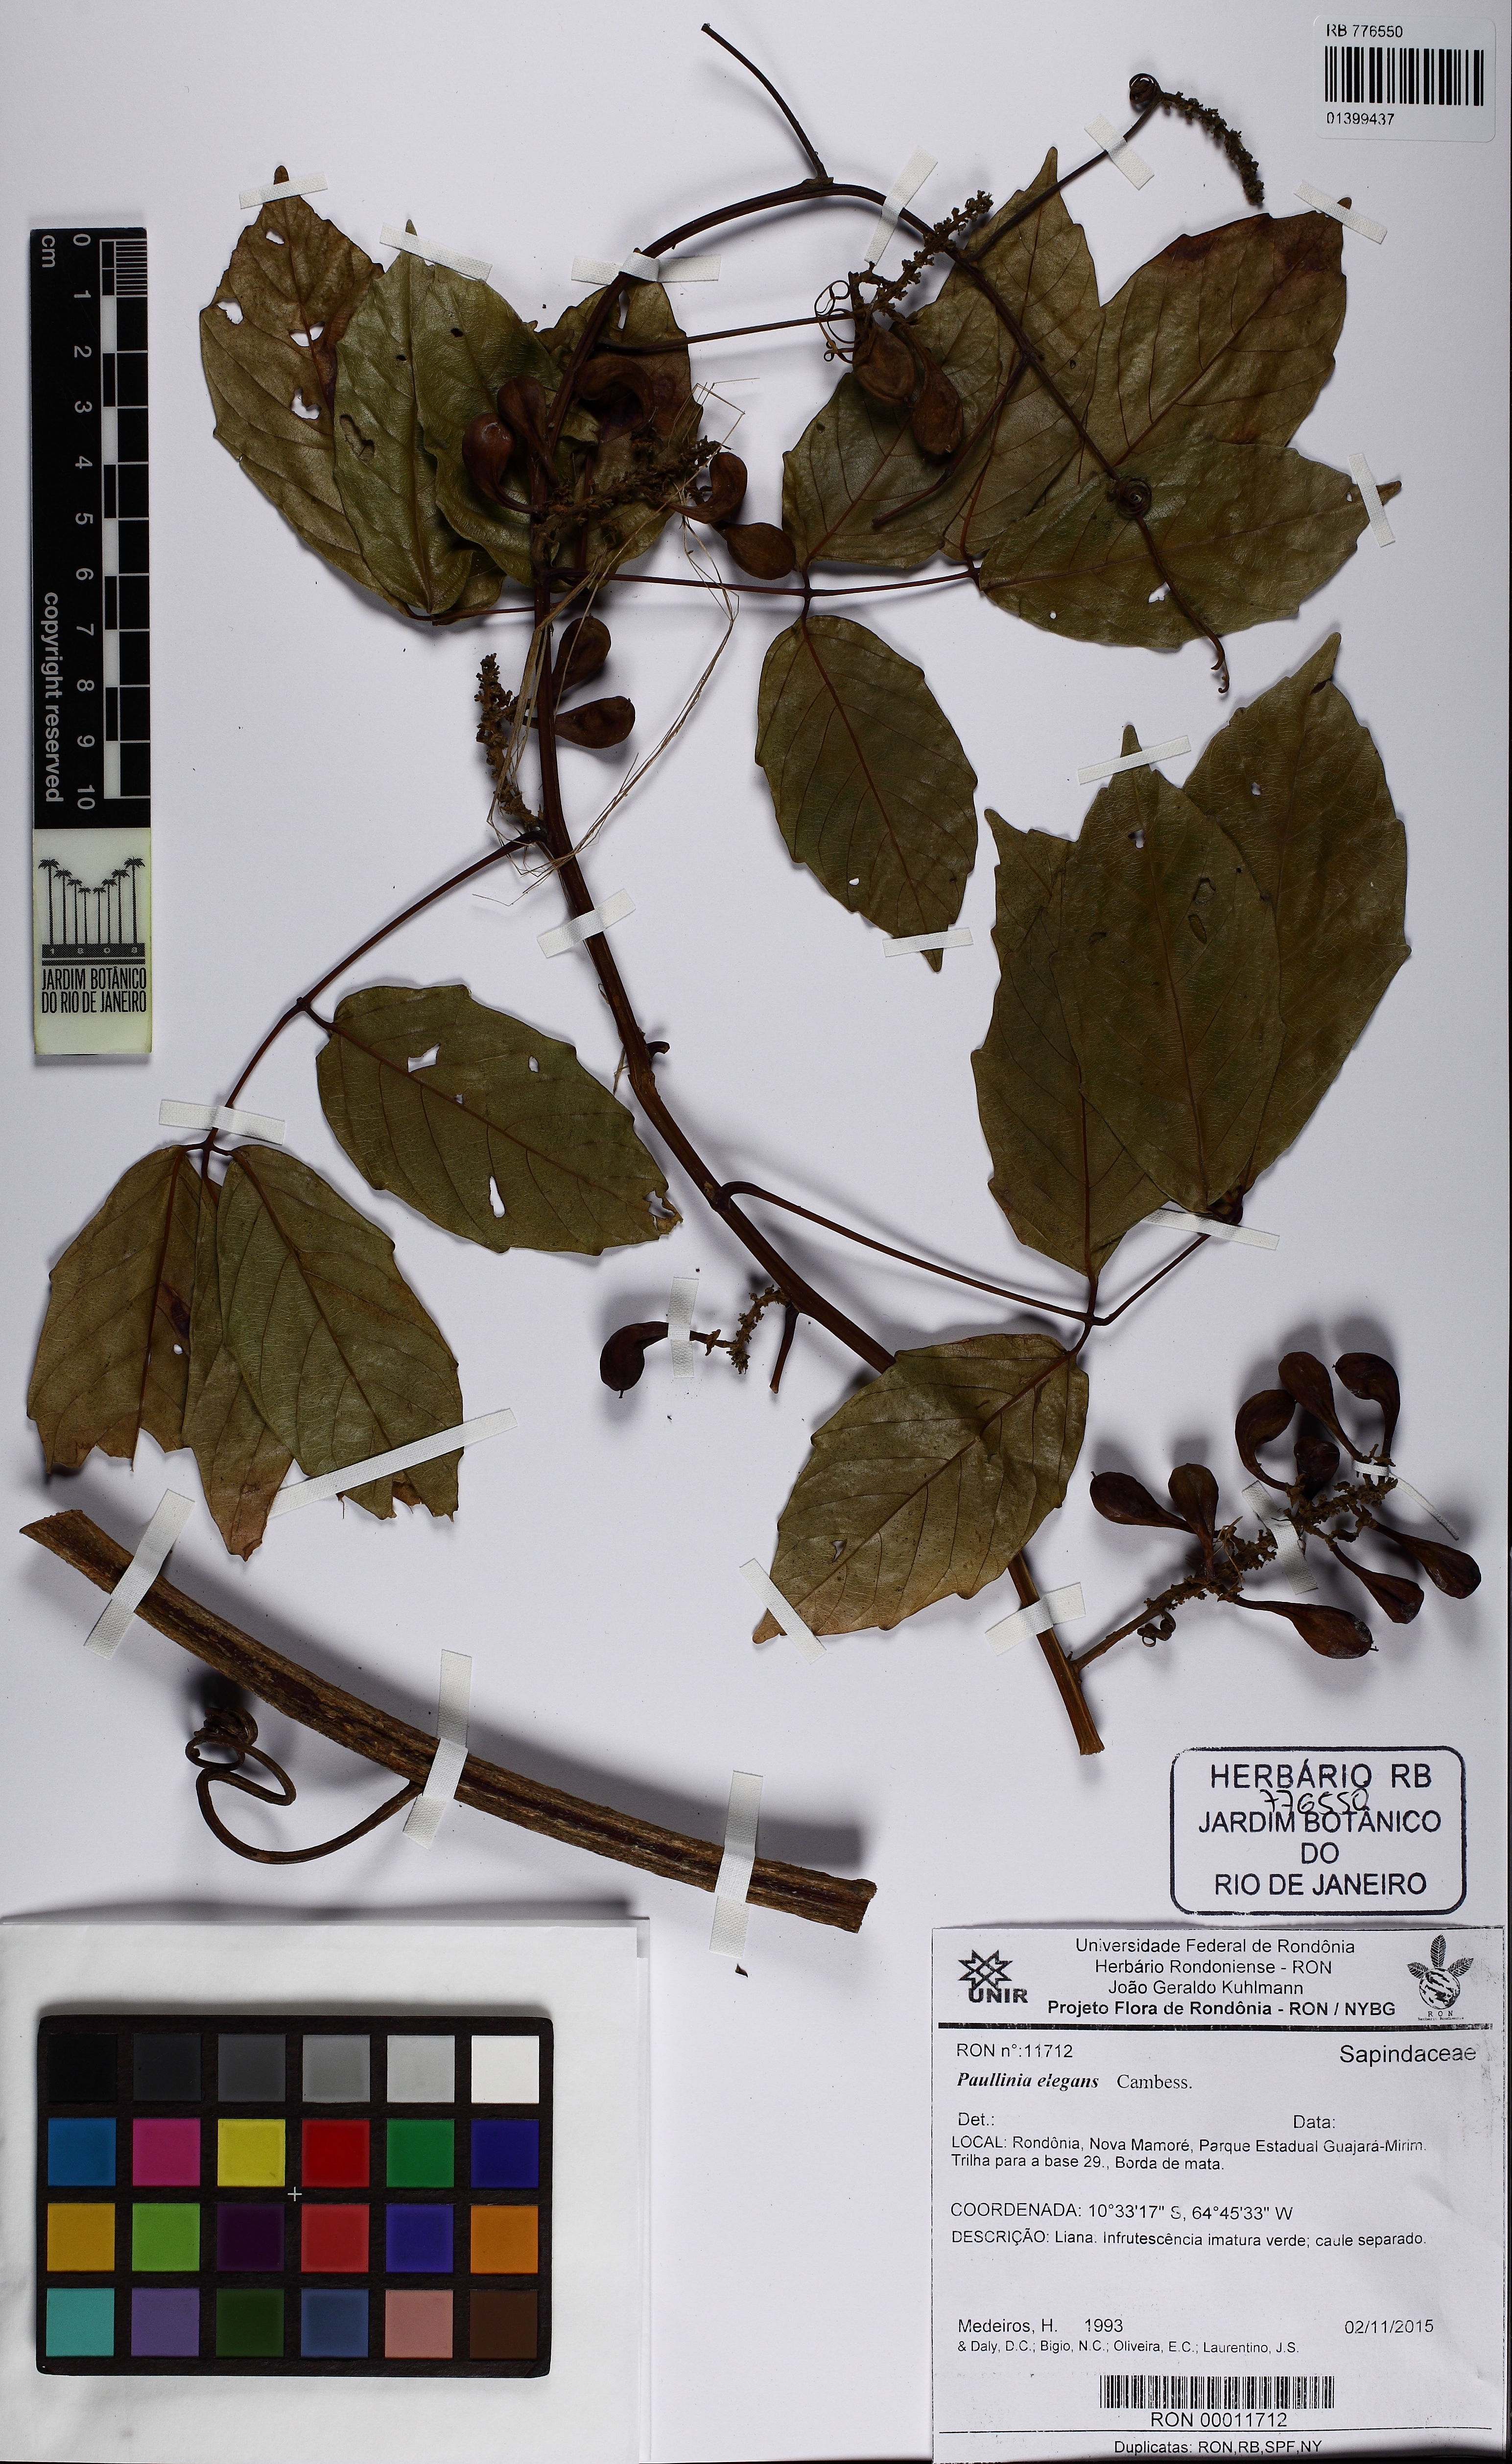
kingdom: Plantae
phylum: Tracheophyta
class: Magnoliopsida
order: Sapindales
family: Sapindaceae
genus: Paullinia
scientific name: Paullinia elegans
